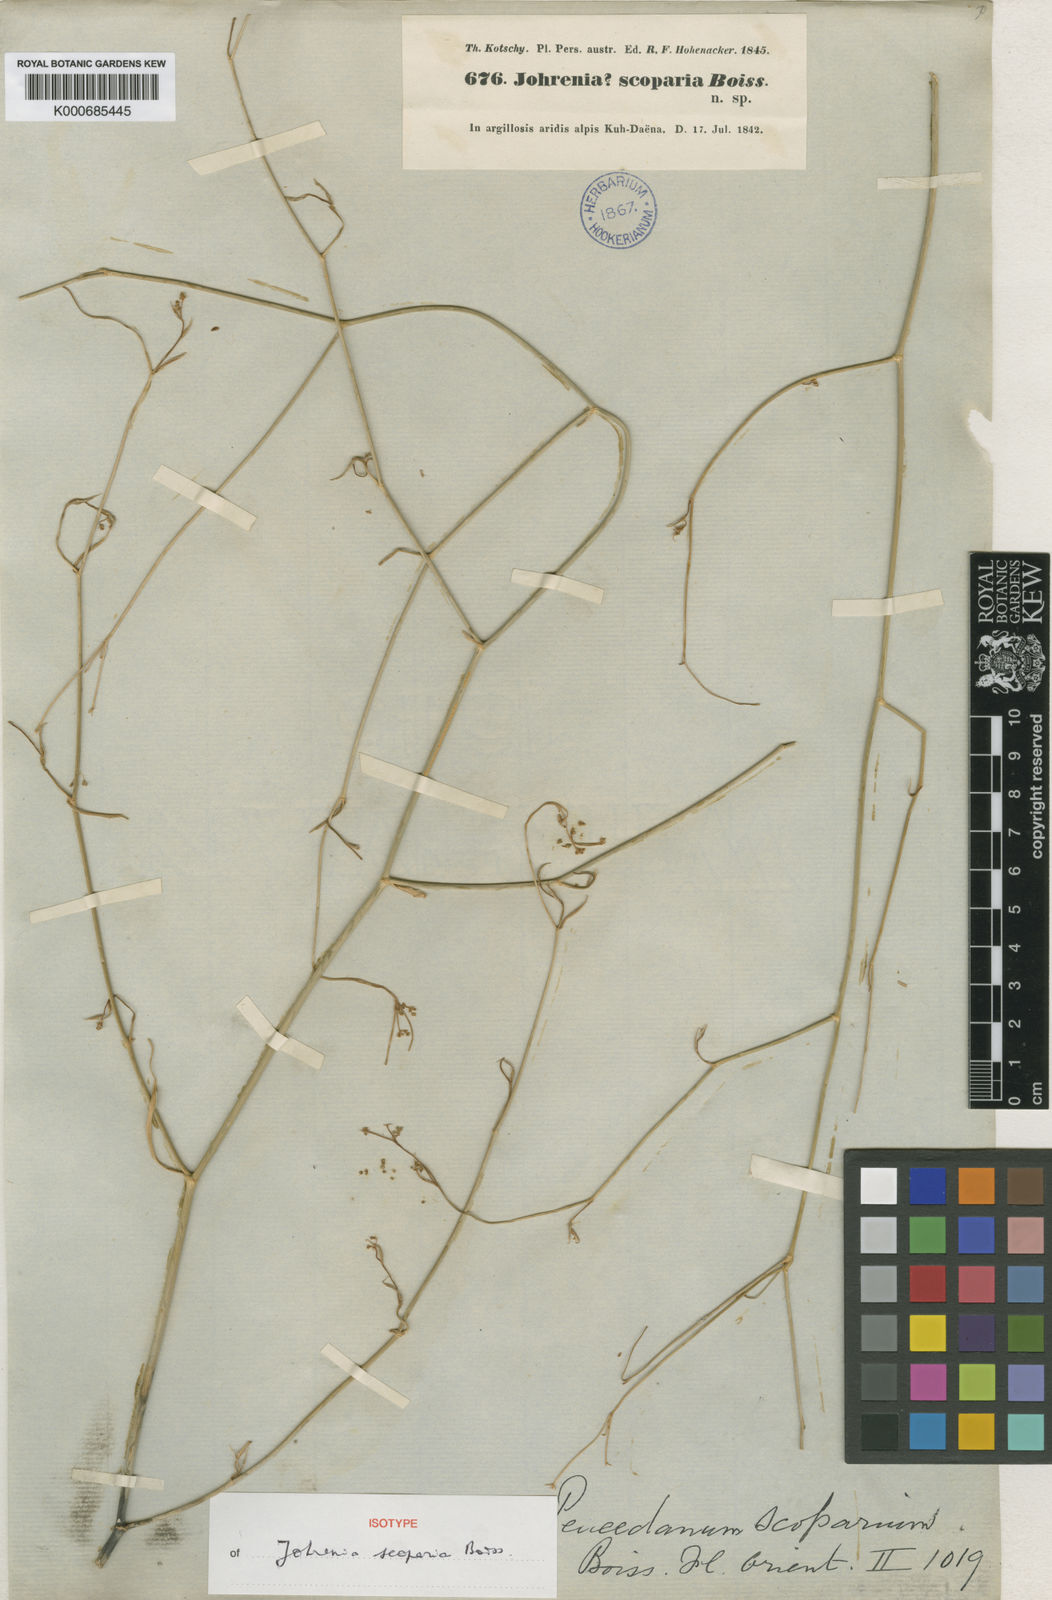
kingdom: Plantae
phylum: Tracheophyta
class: Magnoliopsida
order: Apiales
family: Apiaceae
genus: Dichoropetalum
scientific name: Dichoropetalum scoparium
